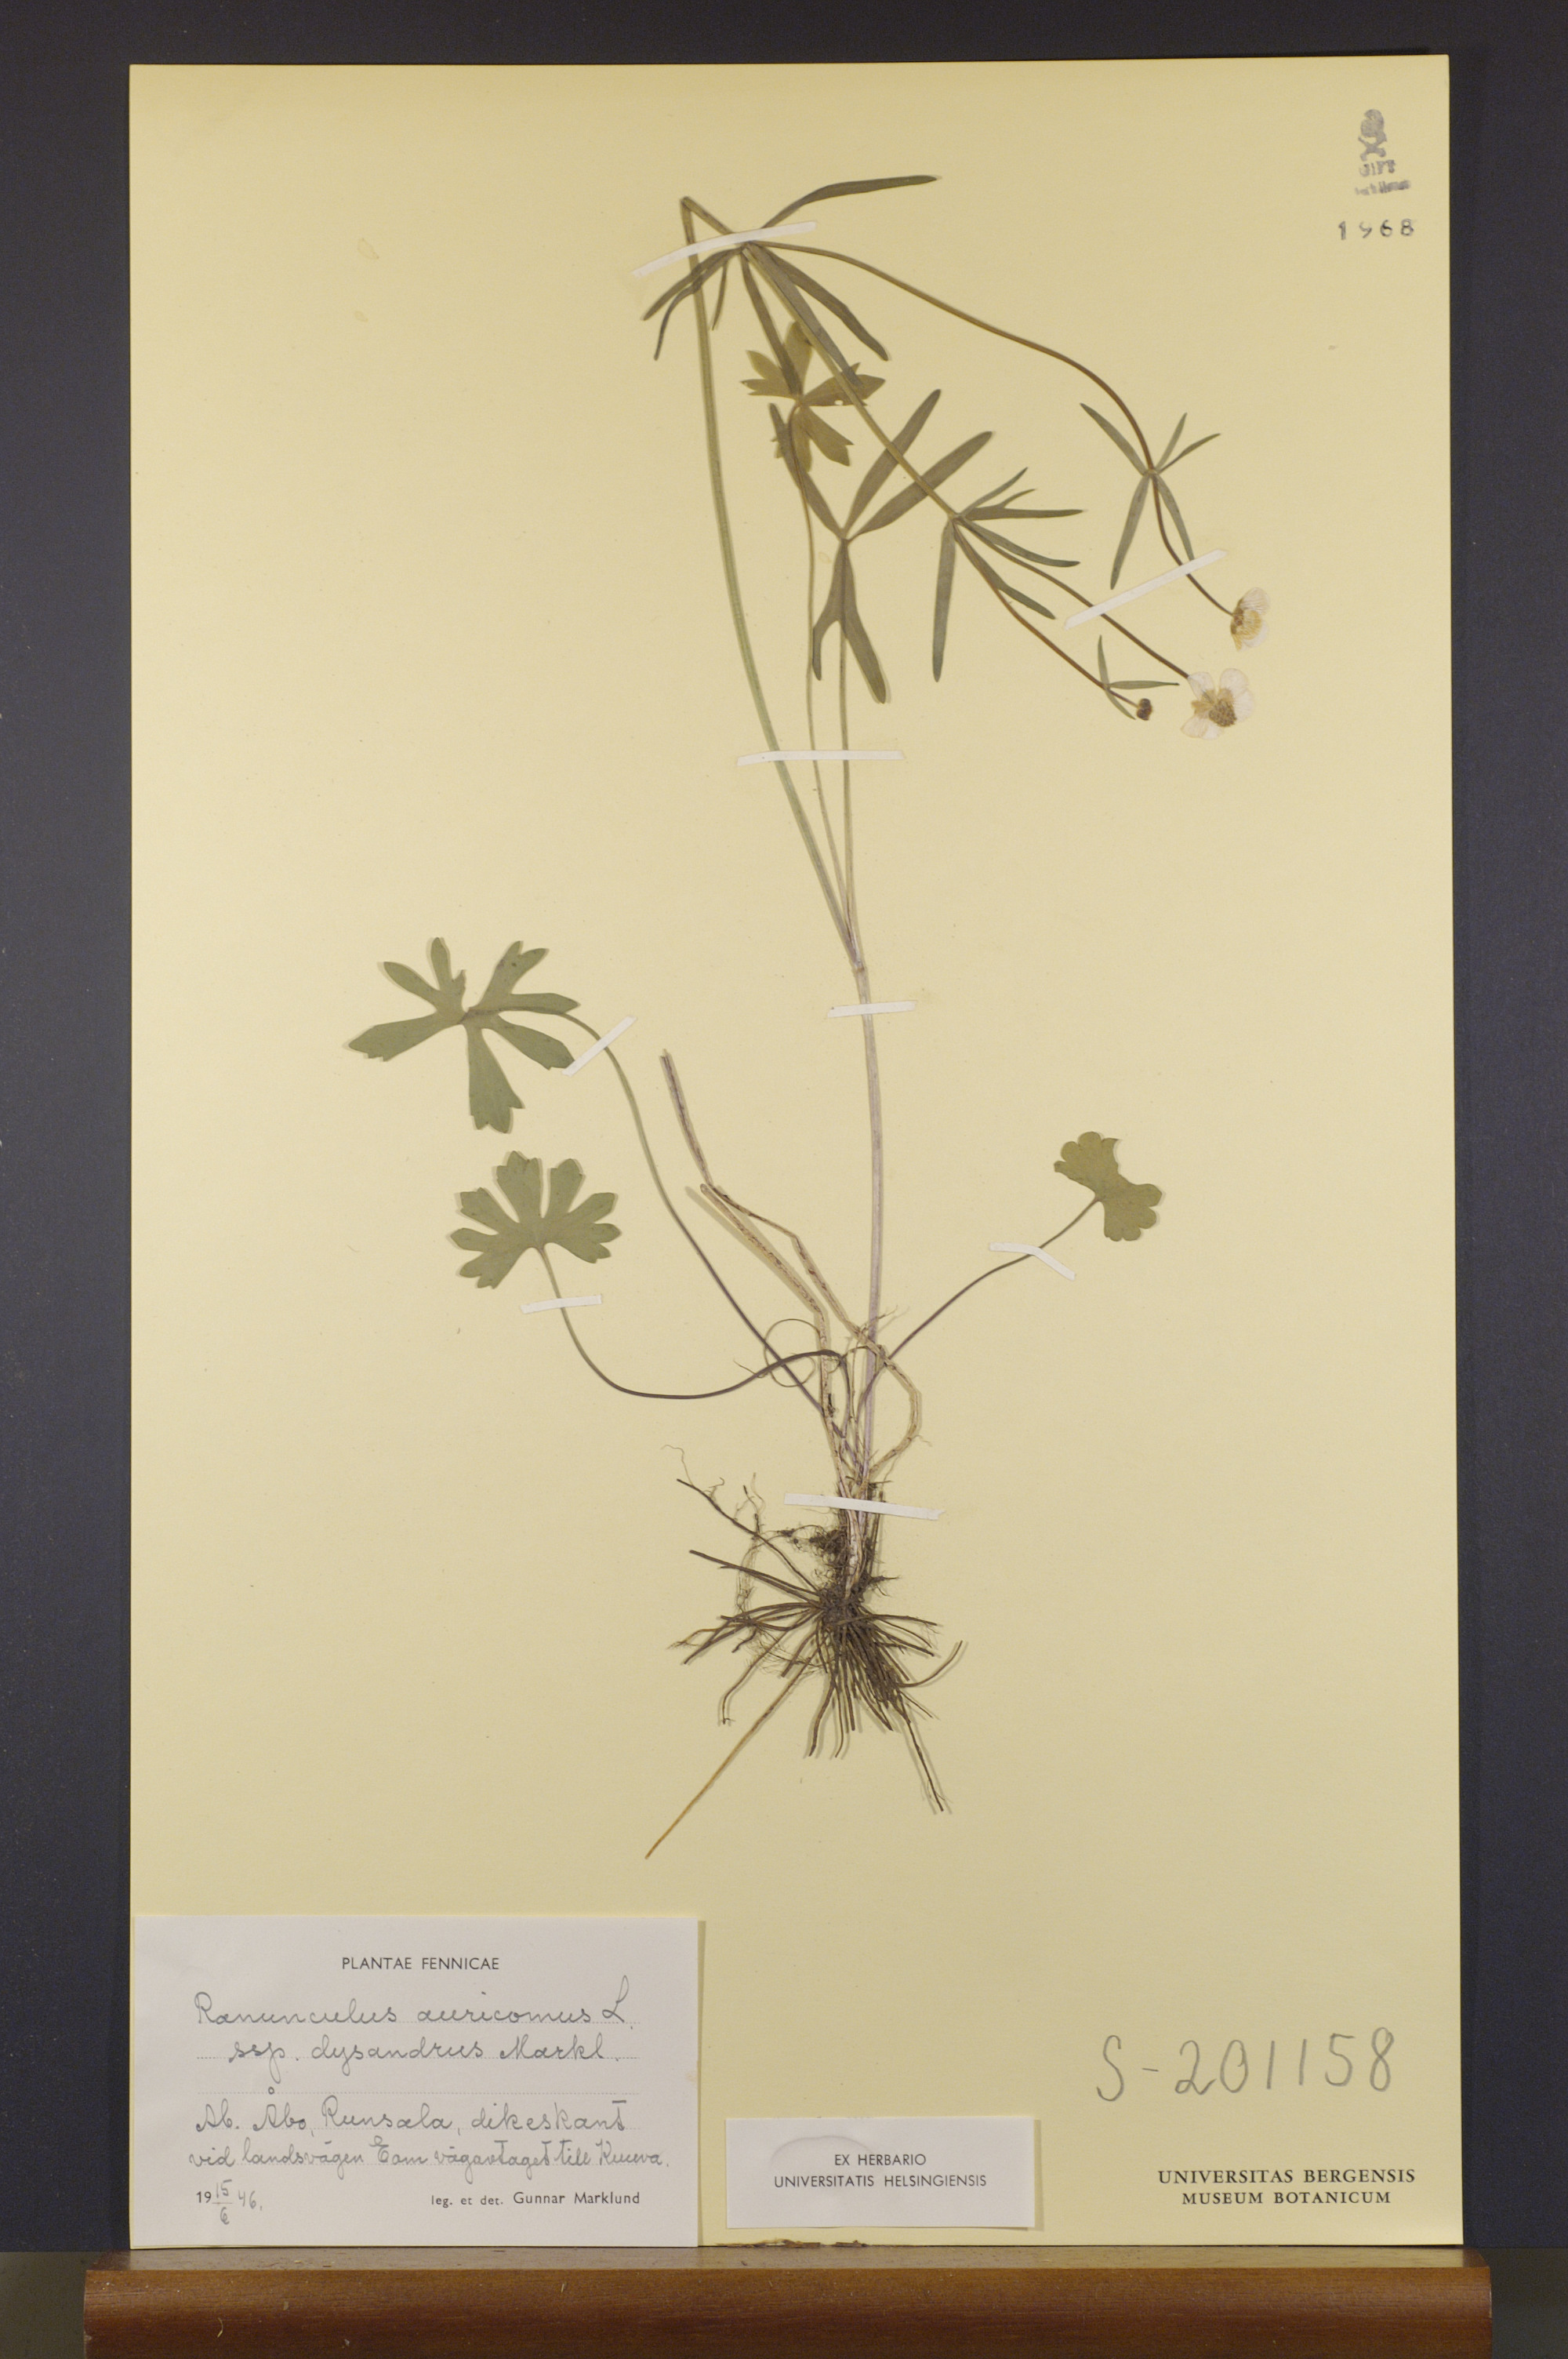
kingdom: Plantae
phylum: Tracheophyta
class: Magnoliopsida
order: Ranunculales
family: Ranunculaceae
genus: Ranunculus
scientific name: Ranunculus dysandrus
